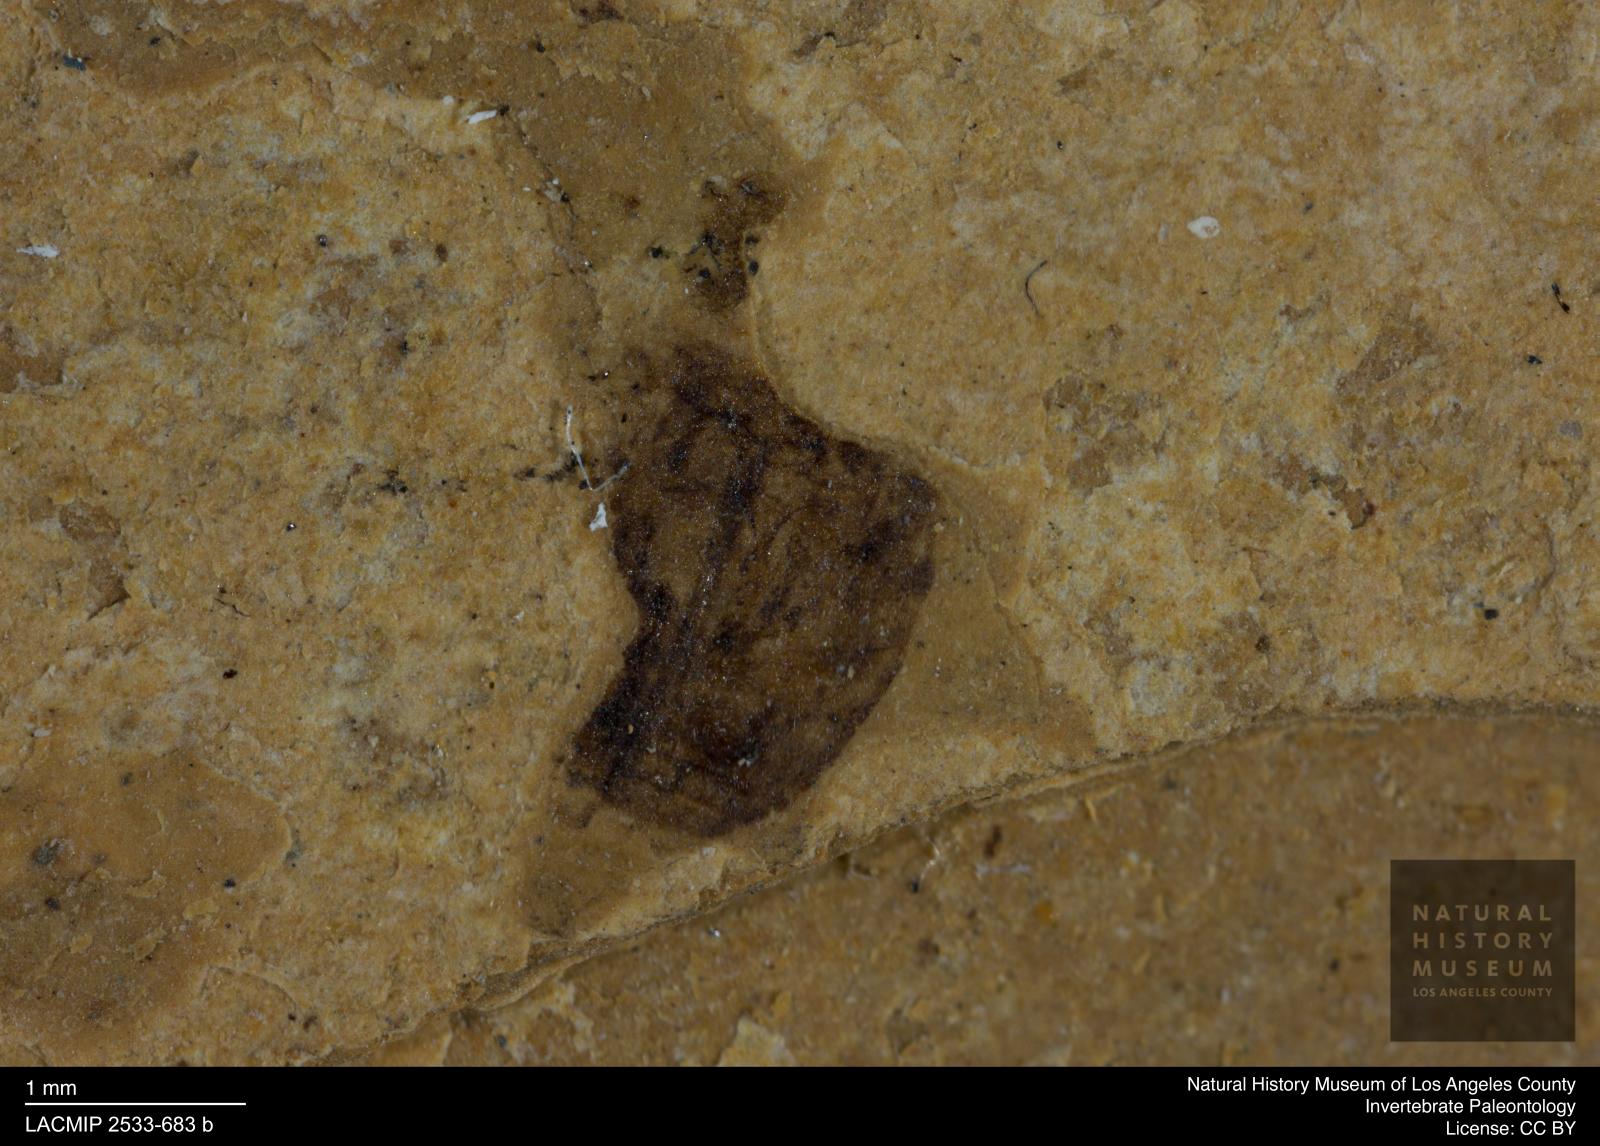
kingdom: Animalia
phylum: Arthropoda
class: Insecta
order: Coleoptera
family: Dytiscidae
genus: Oreodytes
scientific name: Oreodytes cryptolineatus
